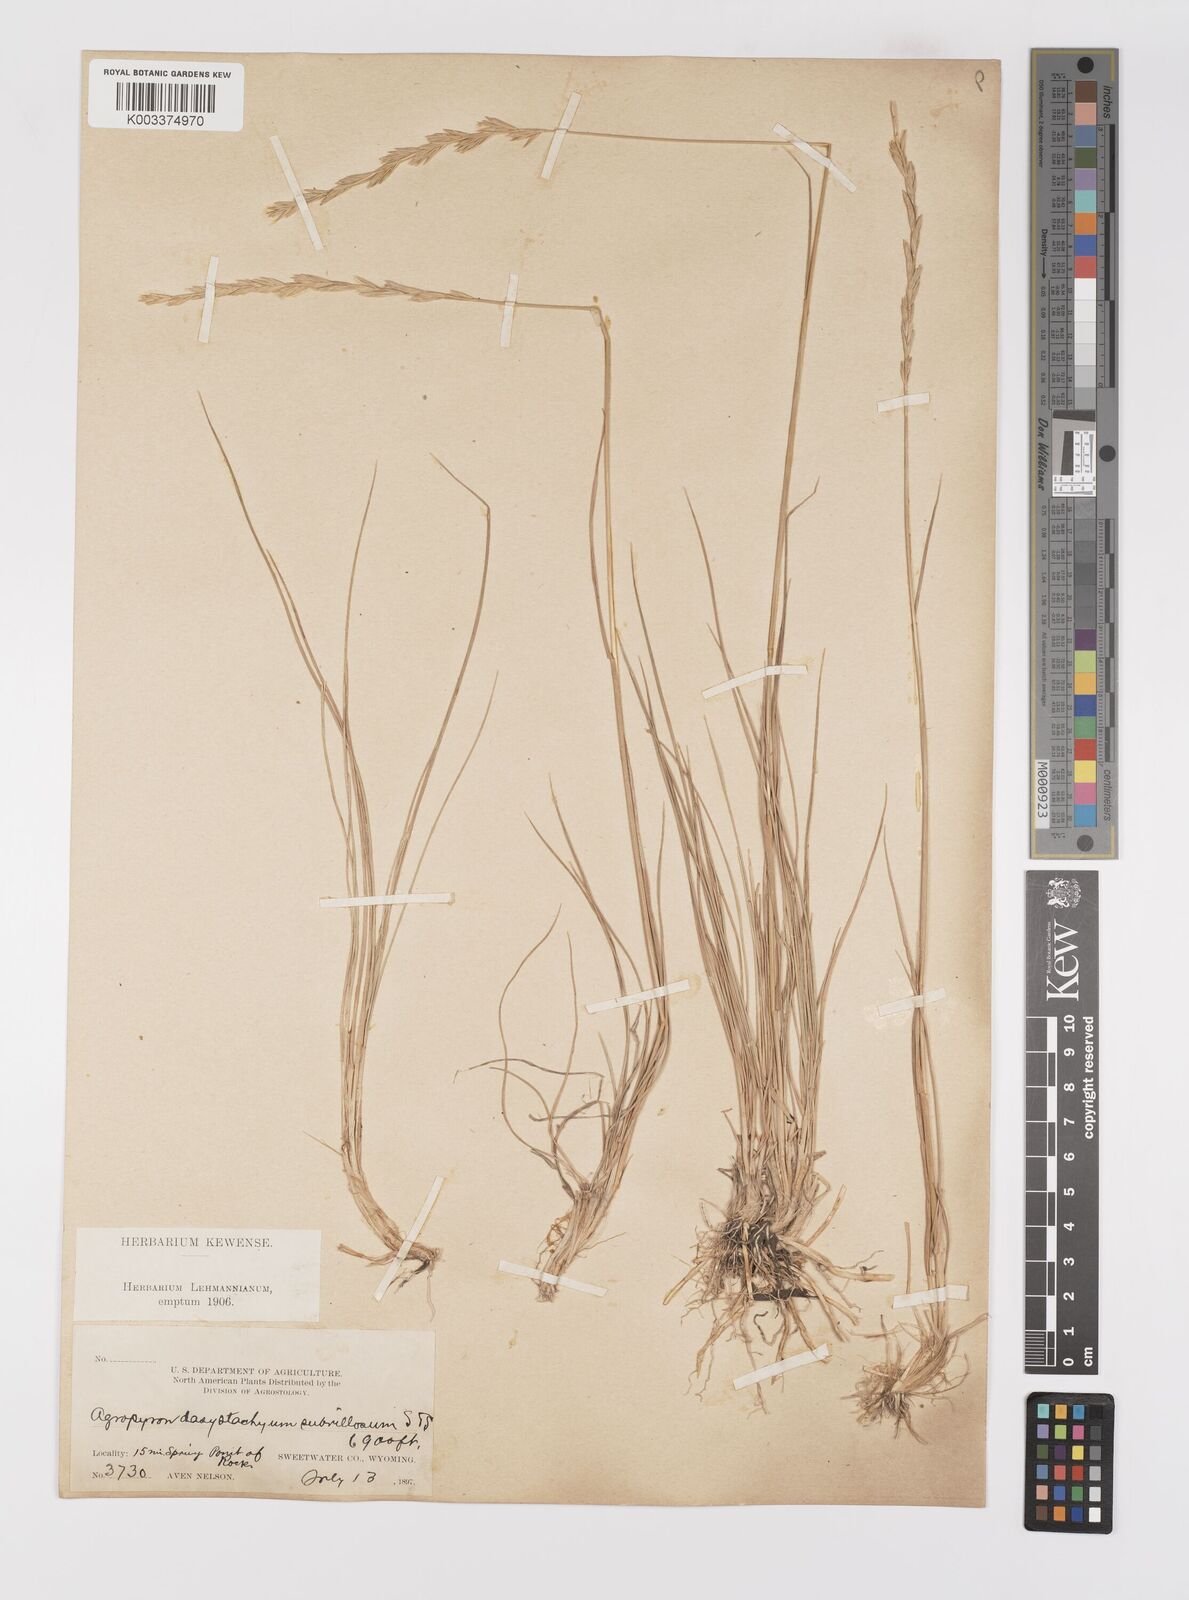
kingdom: Plantae
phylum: Tracheophyta
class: Liliopsida
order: Poales
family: Poaceae
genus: Elymus
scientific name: Elymus lanceolatus
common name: Thick-spike wheatgrass
